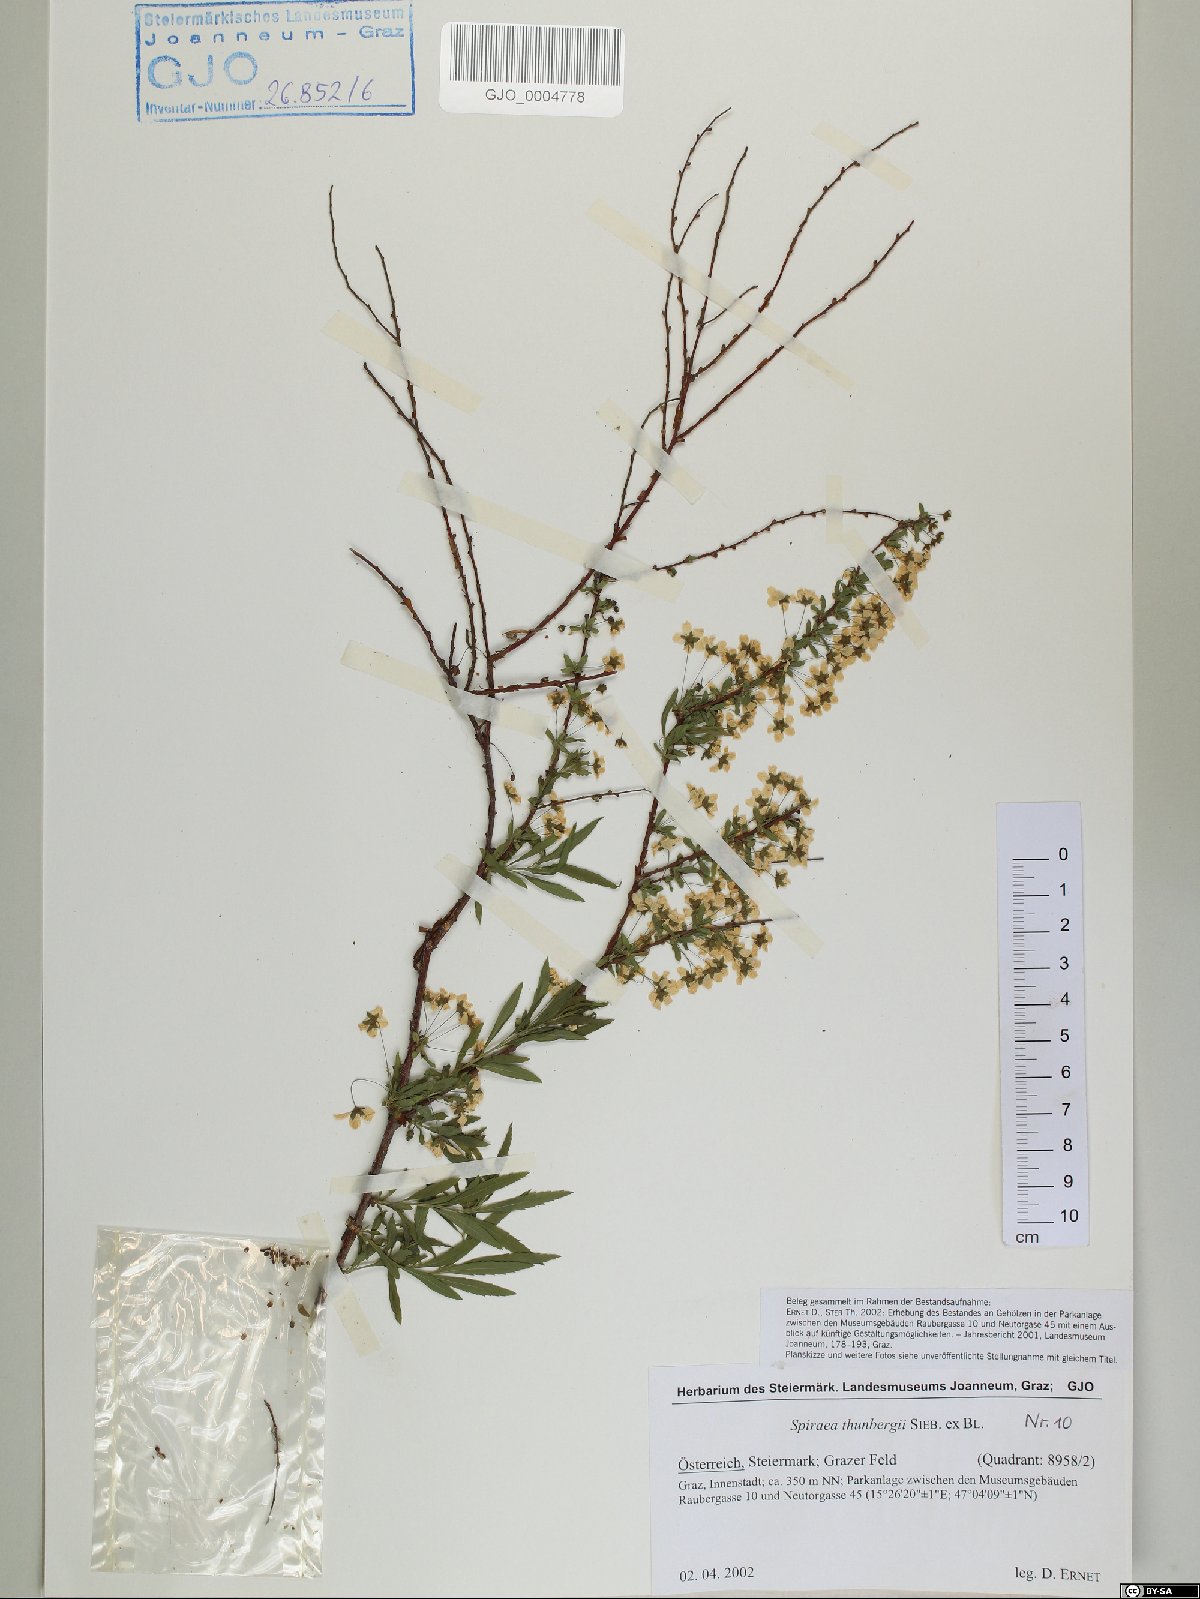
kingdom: Plantae
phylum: Tracheophyta
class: Magnoliopsida
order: Rosales
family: Rosaceae
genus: Spiraea
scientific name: Spiraea thunbergii
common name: Thunberg's meadowsweet
